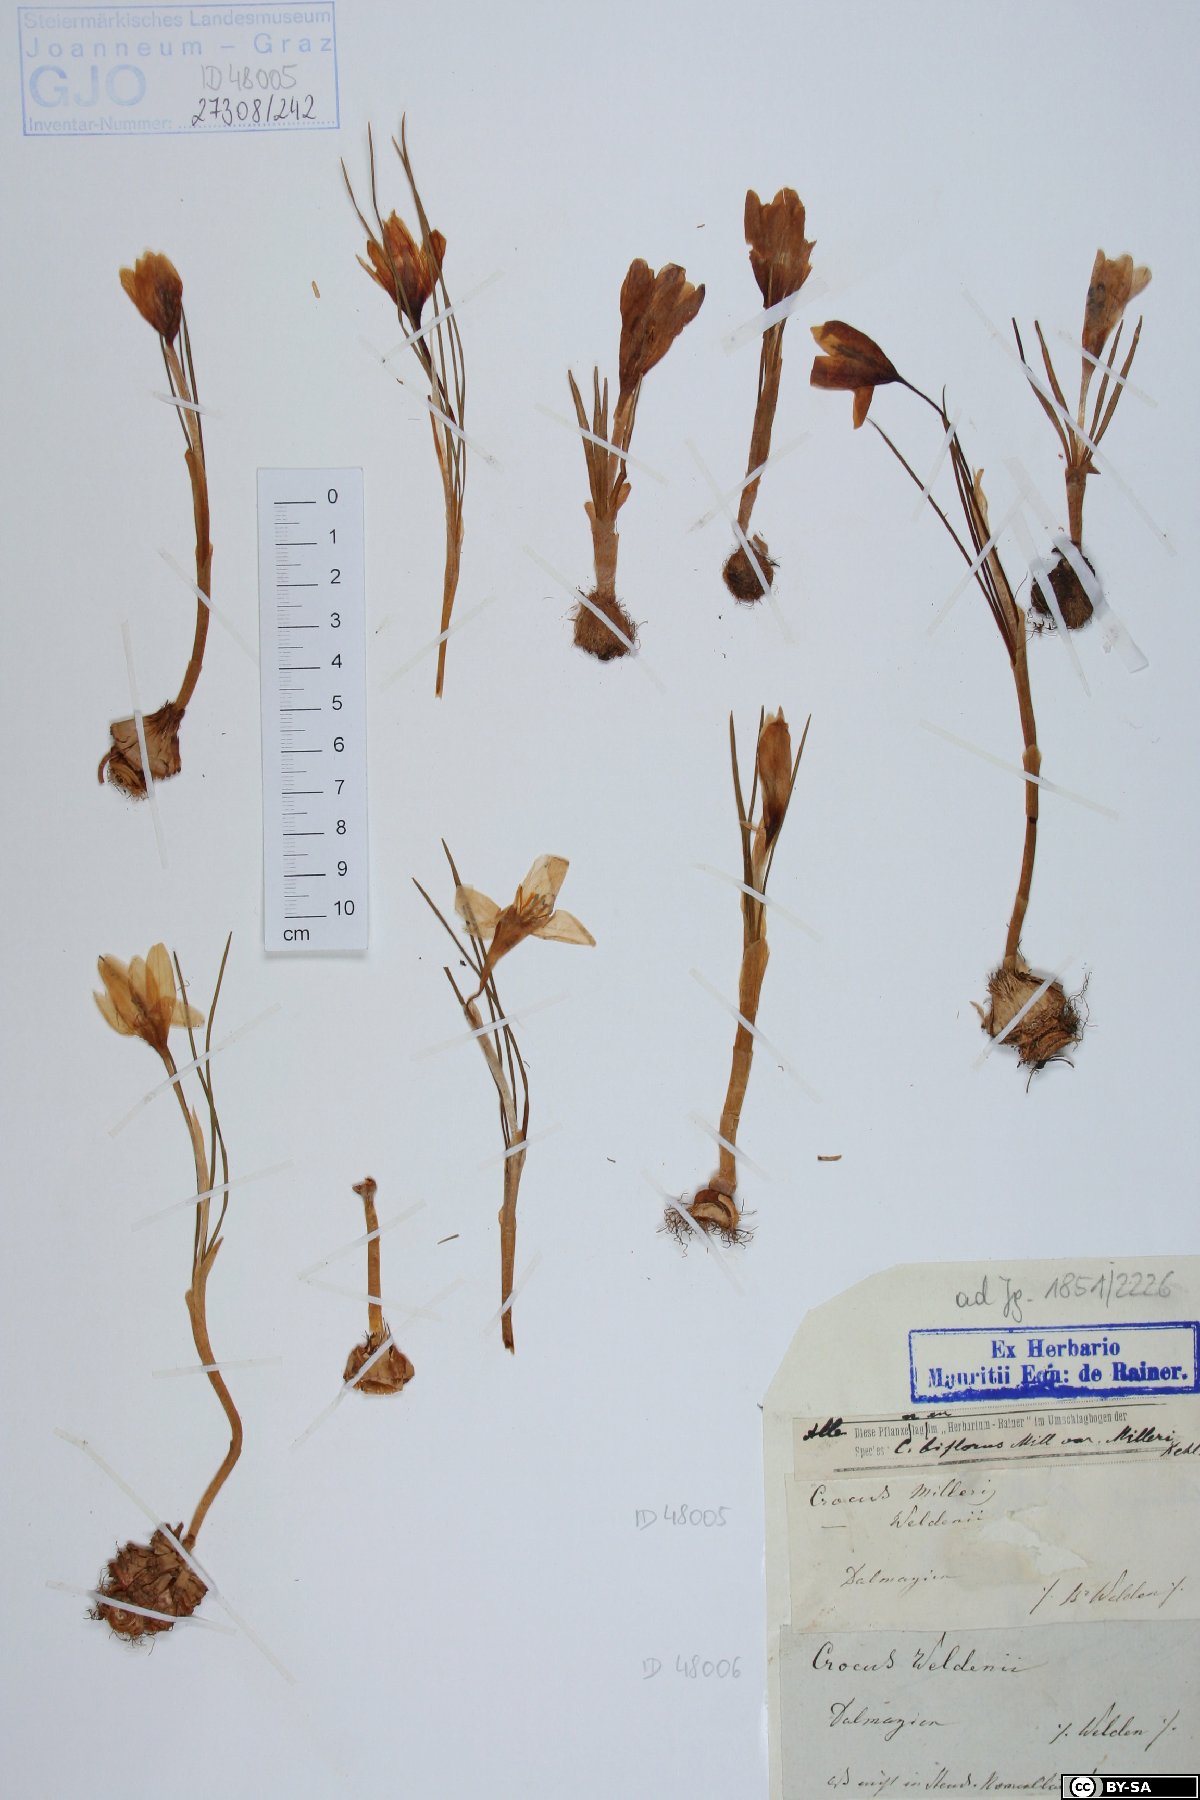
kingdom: Plantae
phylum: Tracheophyta
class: Liliopsida
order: Asparagales
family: Iridaceae
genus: Crocus
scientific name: Crocus weldenii
